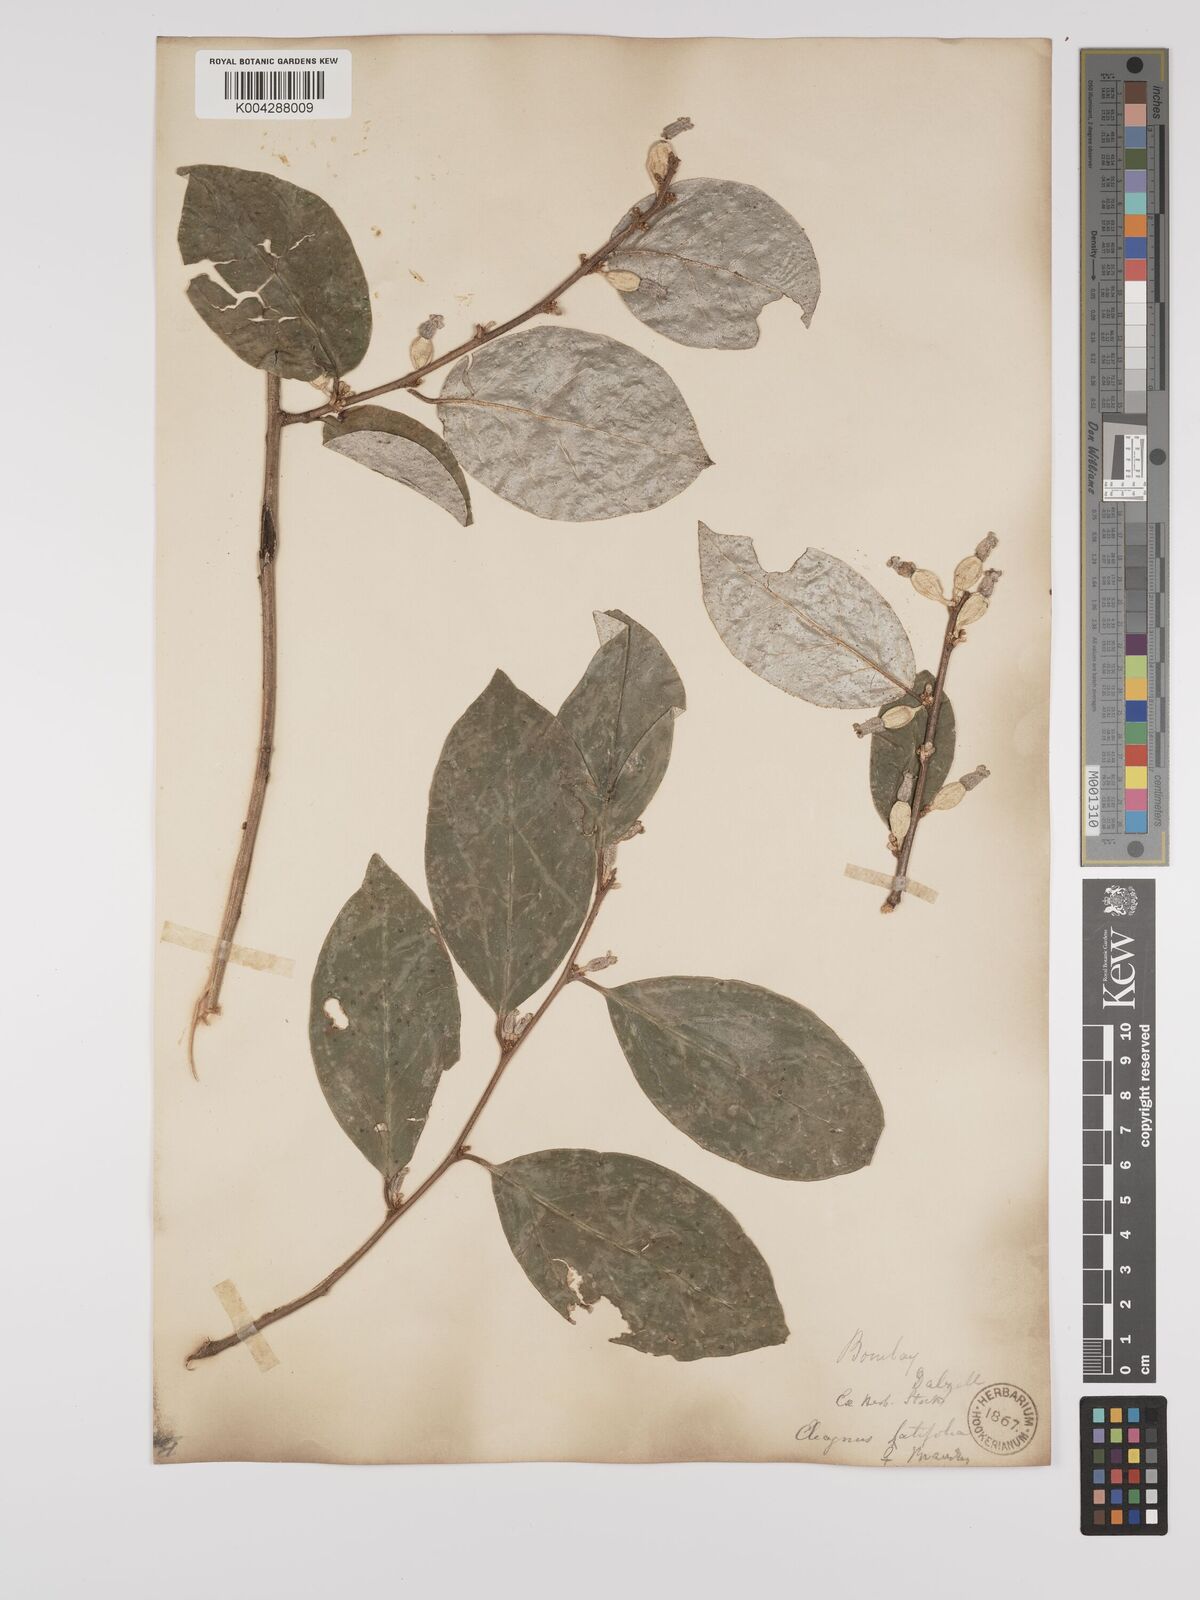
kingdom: Plantae
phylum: Tracheophyta
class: Magnoliopsida
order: Rosales
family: Elaeagnaceae
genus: Elaeagnus
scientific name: Elaeagnus latifolia
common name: Oleaster
